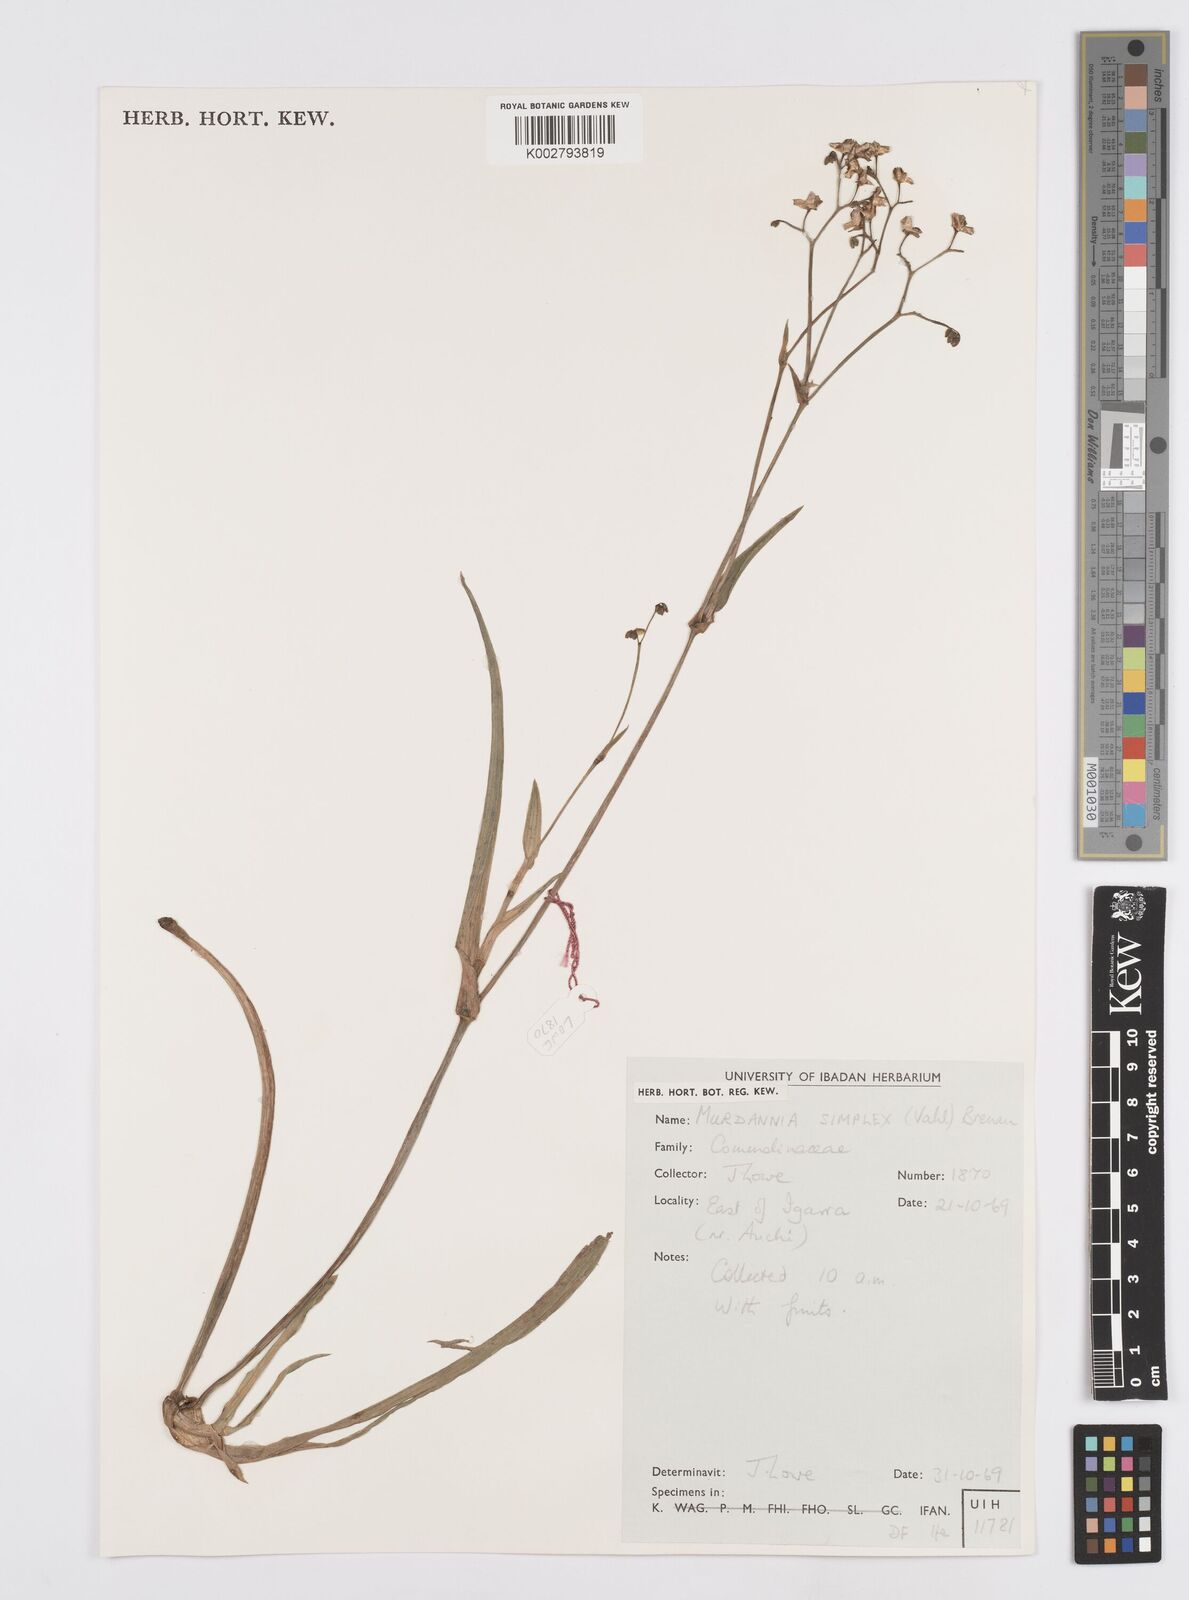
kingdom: Plantae
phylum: Tracheophyta
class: Liliopsida
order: Commelinales
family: Commelinaceae
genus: Murdannia
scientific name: Murdannia simplex
